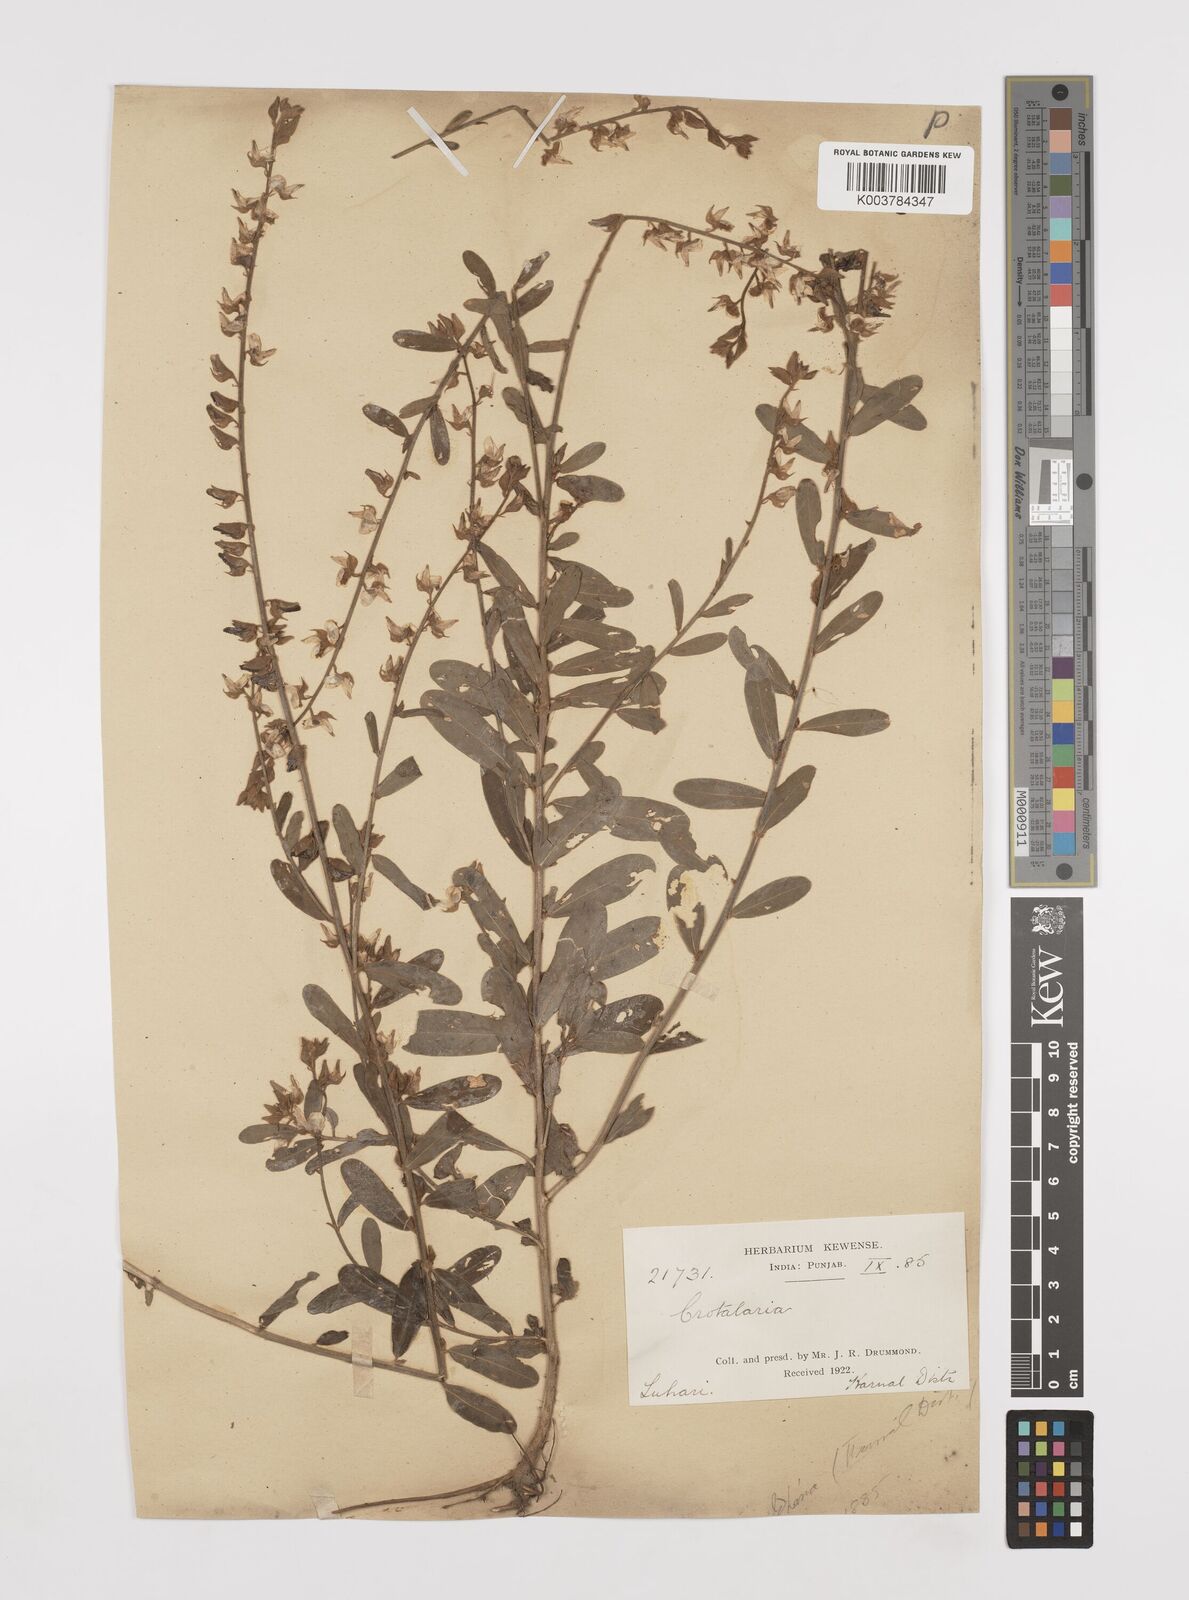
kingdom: Plantae
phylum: Tracheophyta
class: Magnoliopsida
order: Fabales
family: Fabaceae
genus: Crotalaria
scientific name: Crotalaria linifolia
